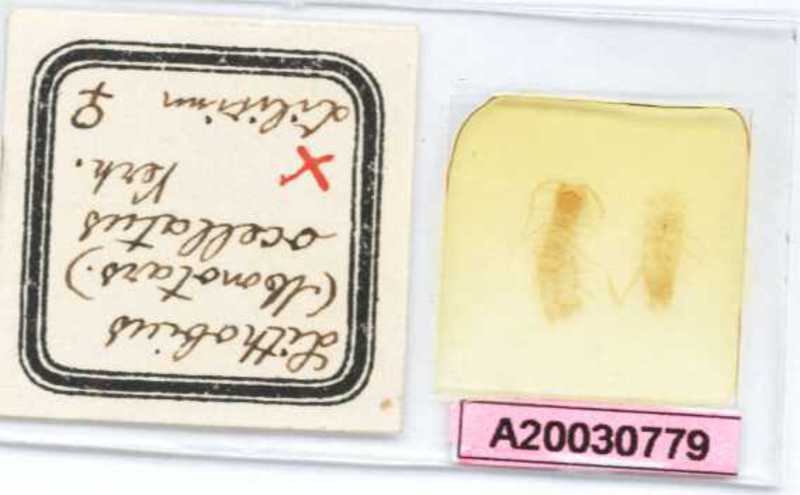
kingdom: Animalia
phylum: Arthropoda
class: Chilopoda
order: Lithobiomorpha
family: Lithobiidae
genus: Lithobius
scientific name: Lithobius parvicornis
